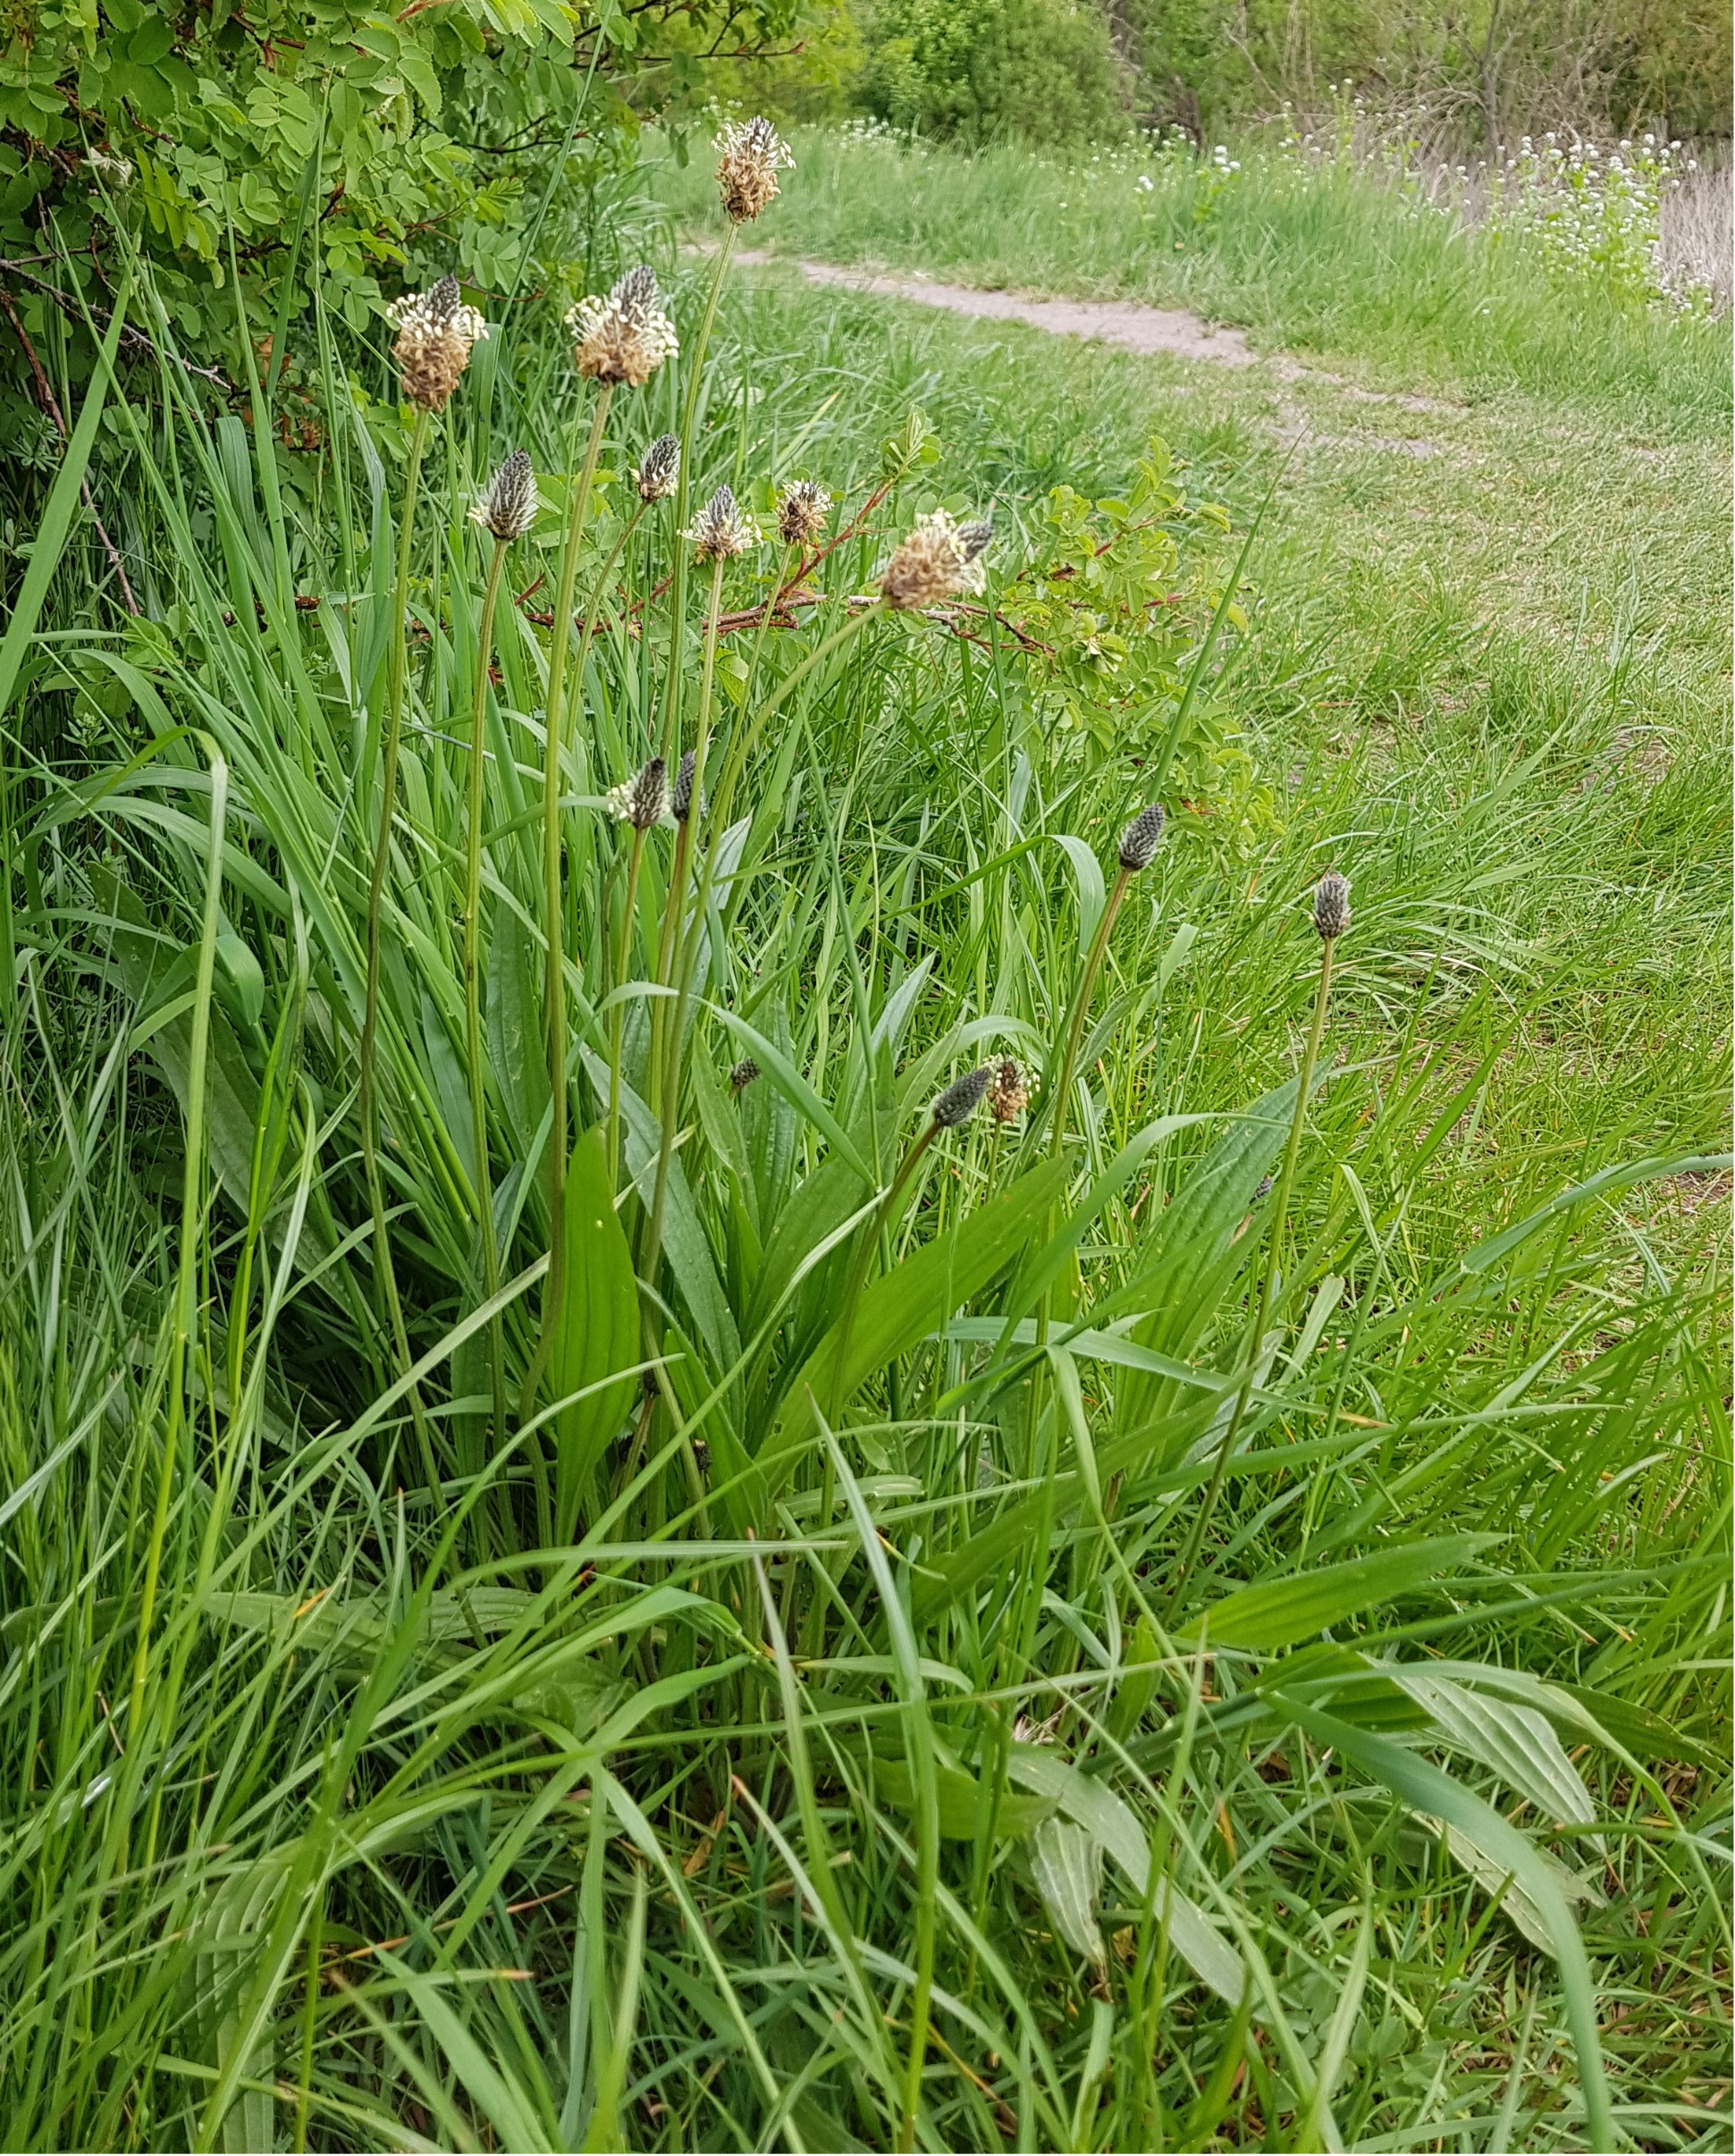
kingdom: Plantae
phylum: Tracheophyta
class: Magnoliopsida
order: Lamiales
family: Plantaginaceae
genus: Plantago
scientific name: Plantago lanceolata
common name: Lancet-vejbred
